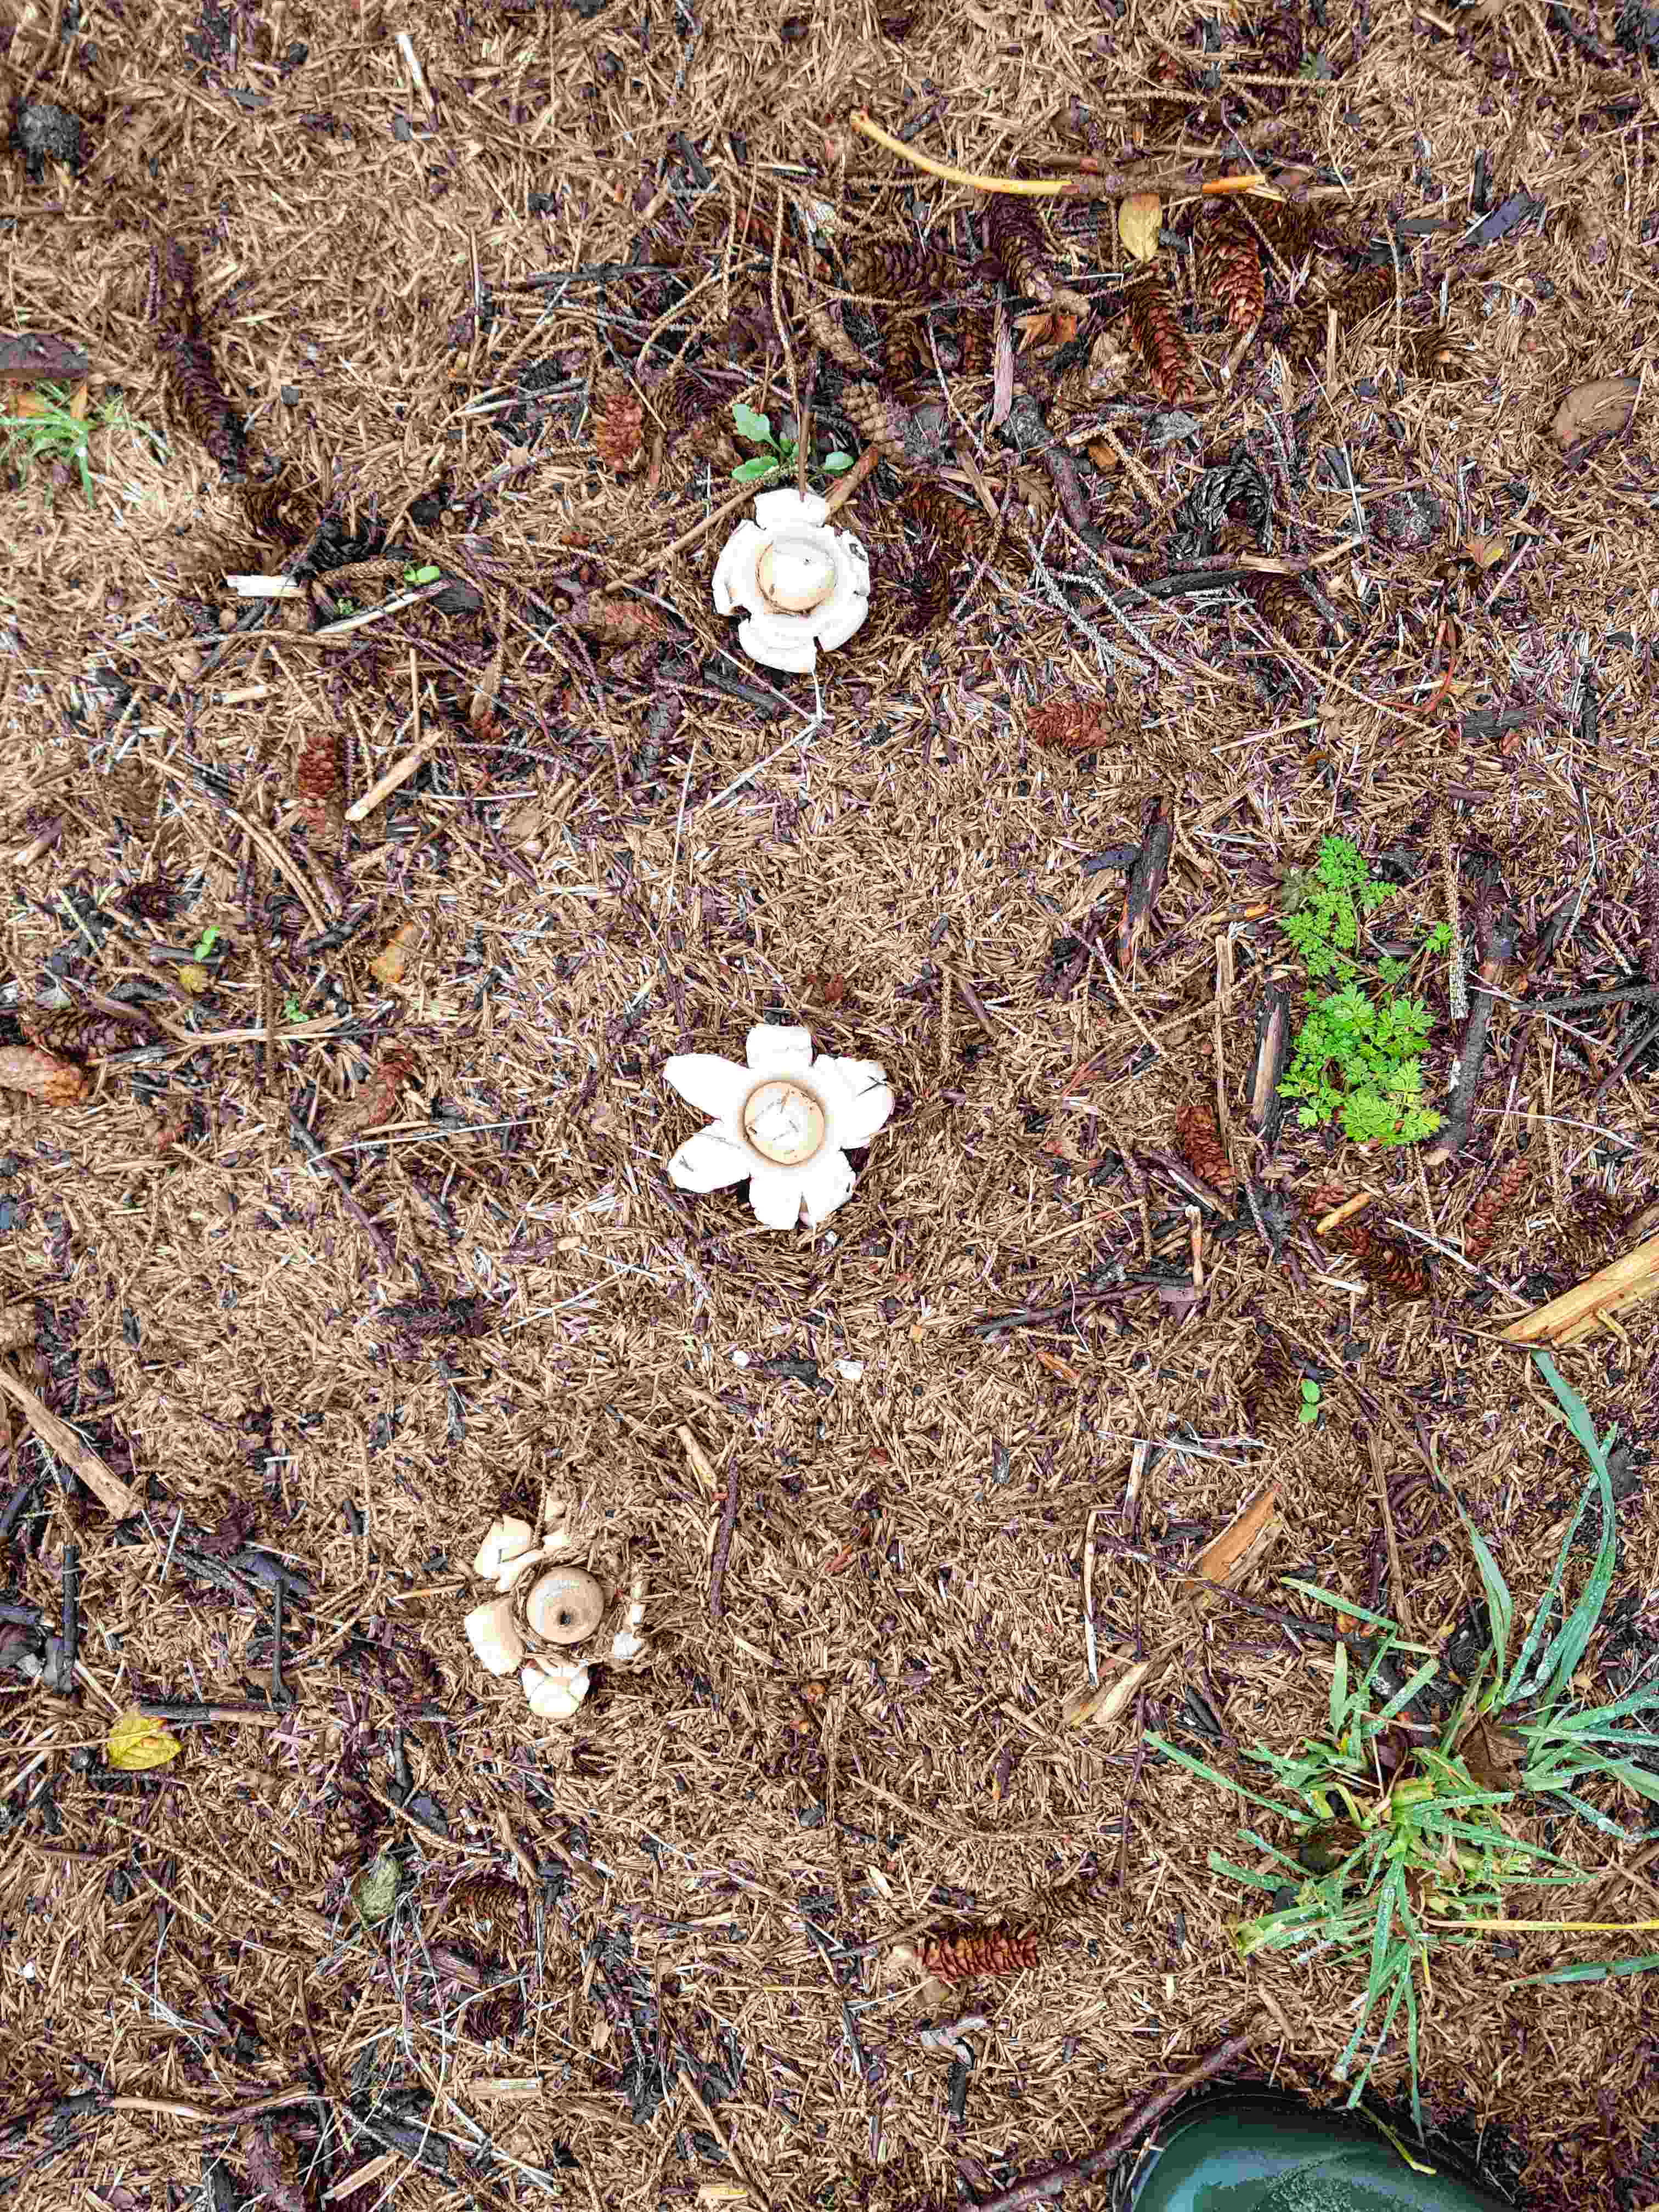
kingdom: Fungi
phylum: Basidiomycota
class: Agaricomycetes
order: Geastrales
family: Geastraceae
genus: Geastrum
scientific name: Geastrum michelianum
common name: kødet stjernebold
